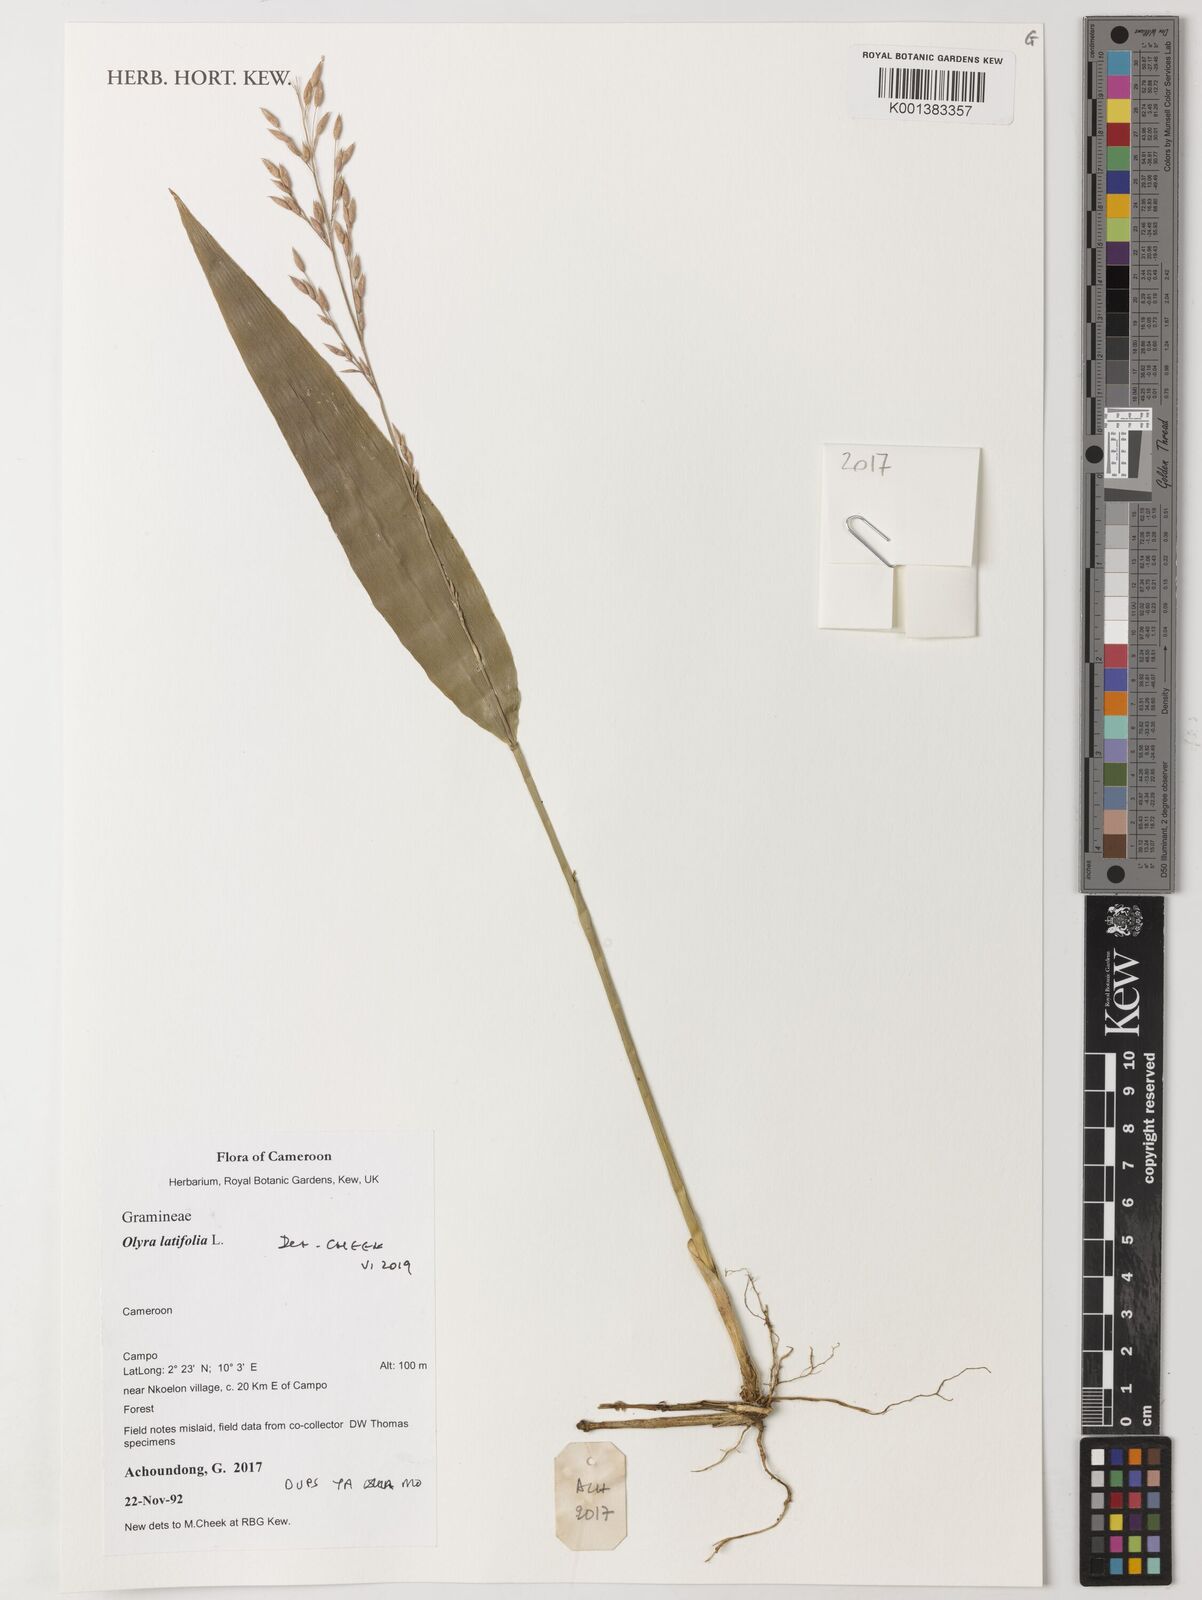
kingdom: Plantae
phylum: Tracheophyta
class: Liliopsida
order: Poales
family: Poaceae
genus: Olyra
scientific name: Olyra latifolia
